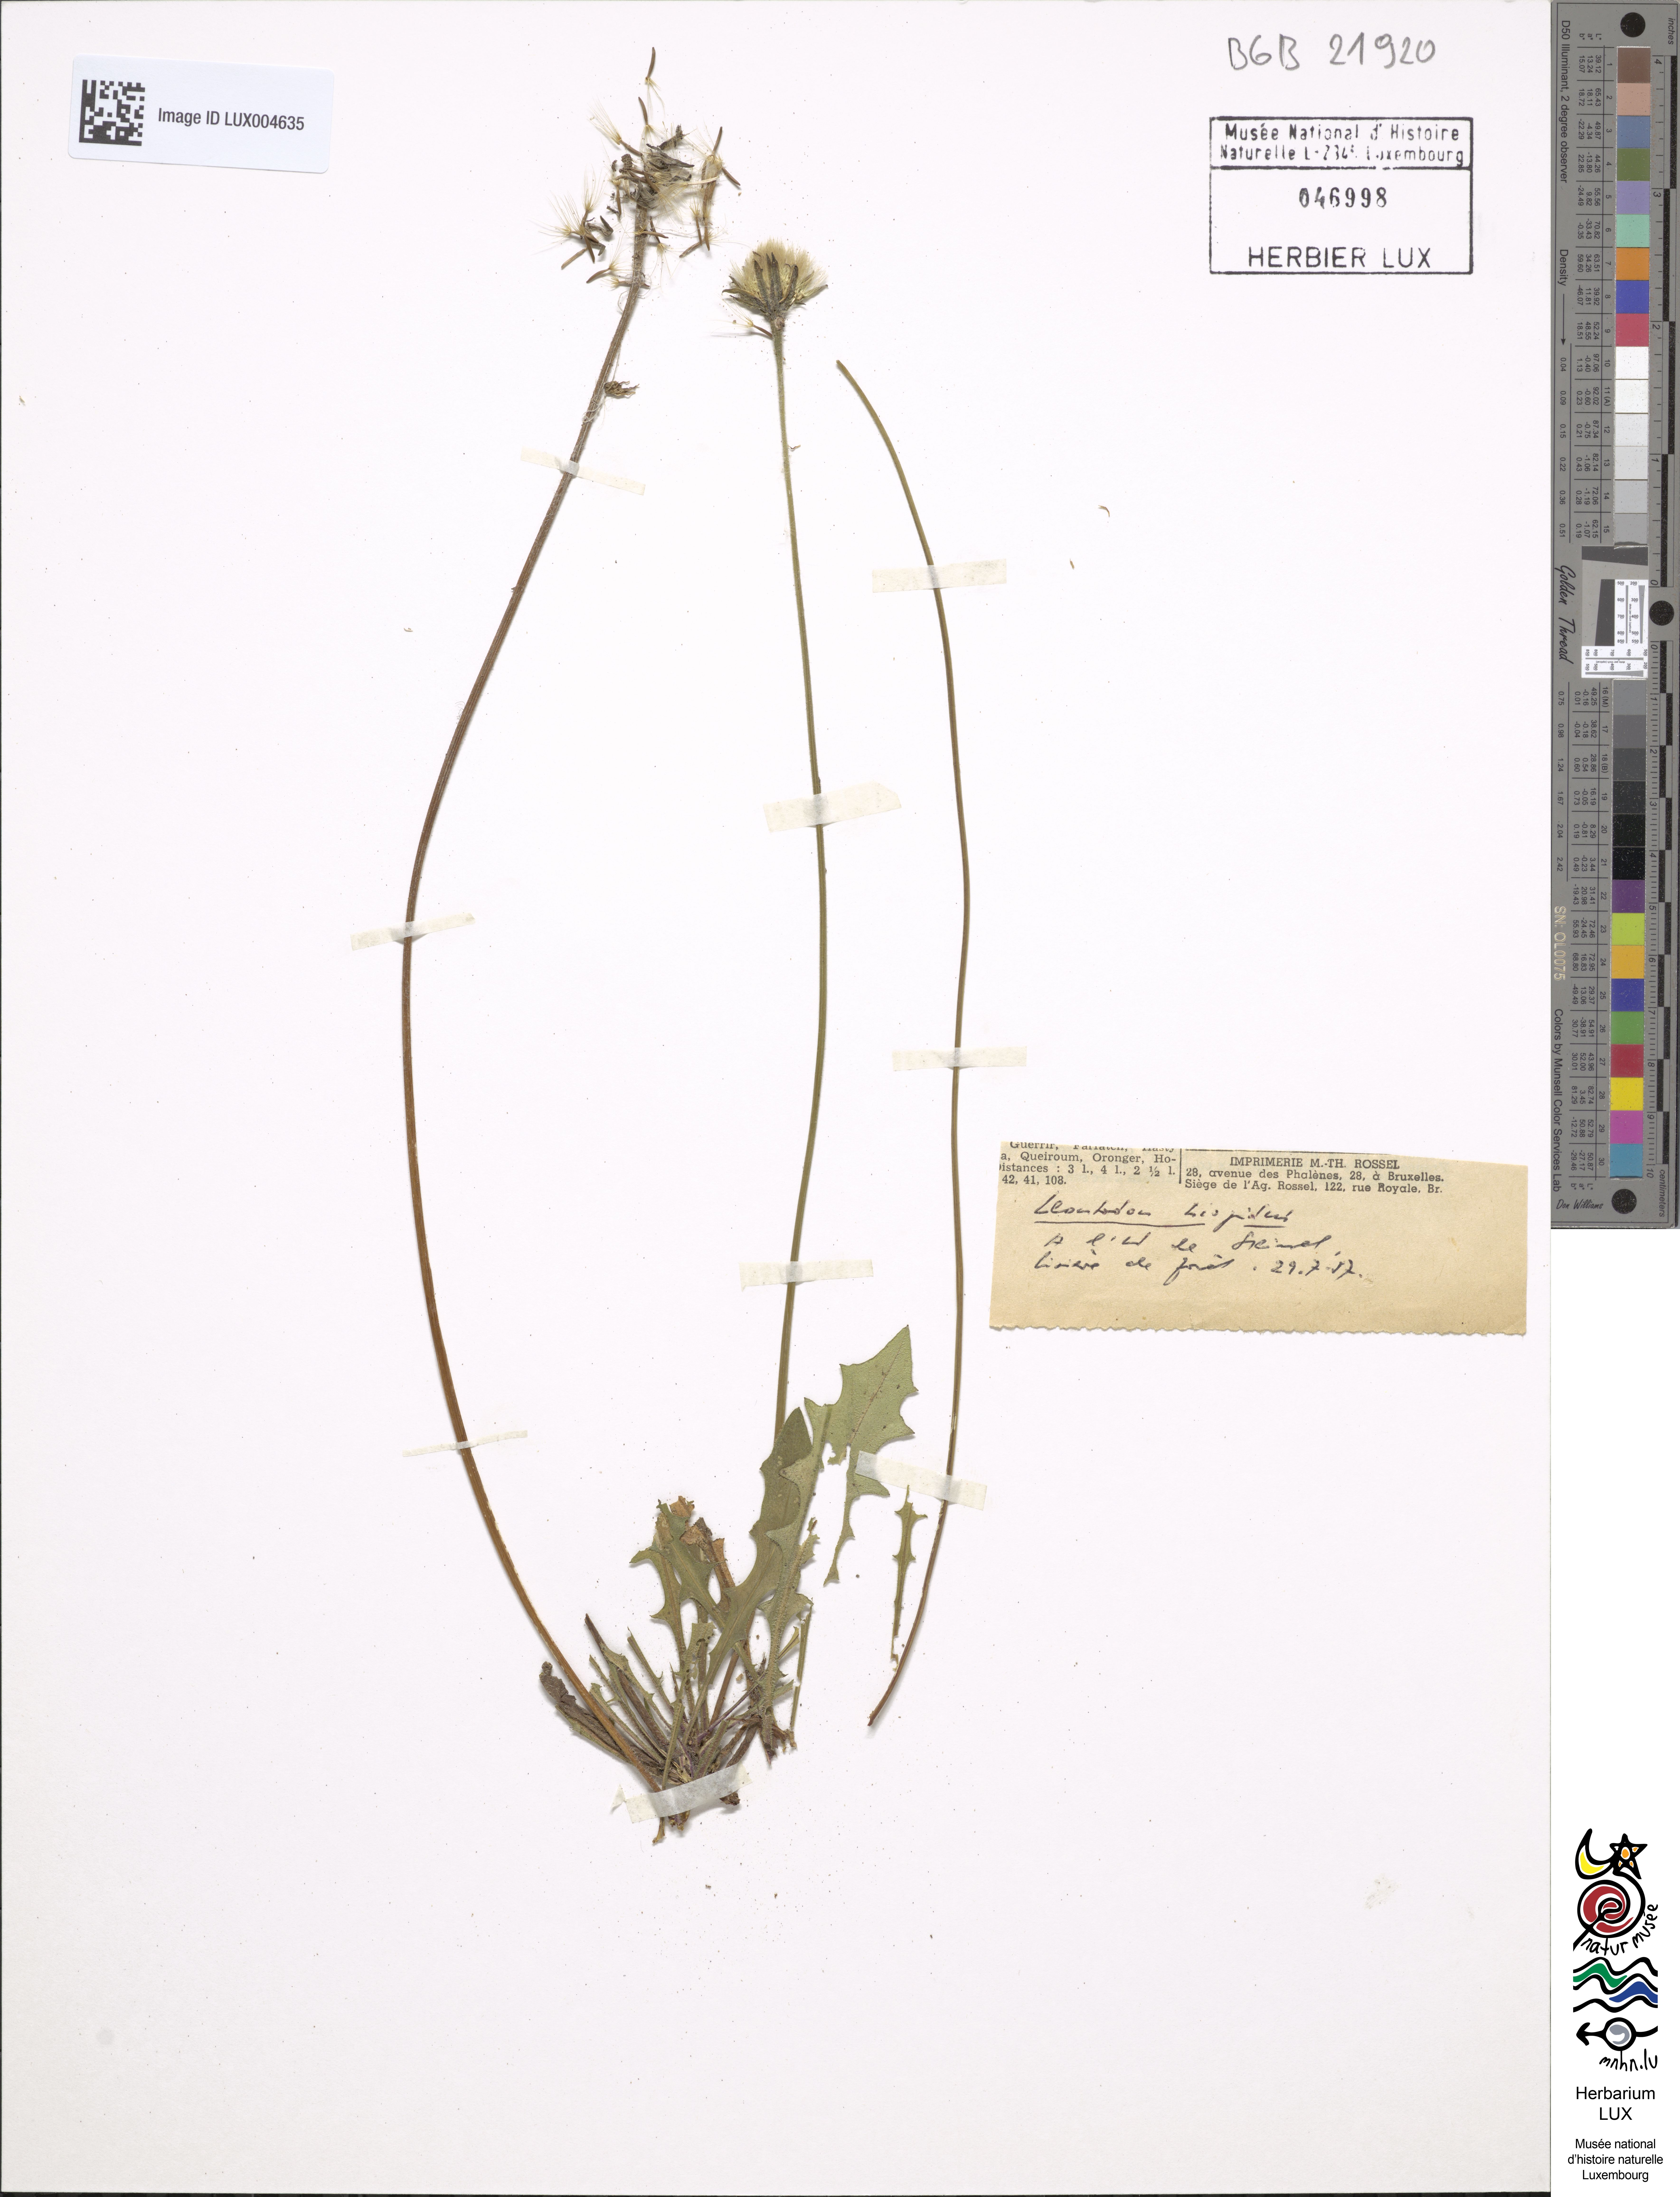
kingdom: Plantae
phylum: Tracheophyta
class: Magnoliopsida
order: Asterales
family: Asteraceae
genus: Leontodon
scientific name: Leontodon hispidus
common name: Rough hawkbit
